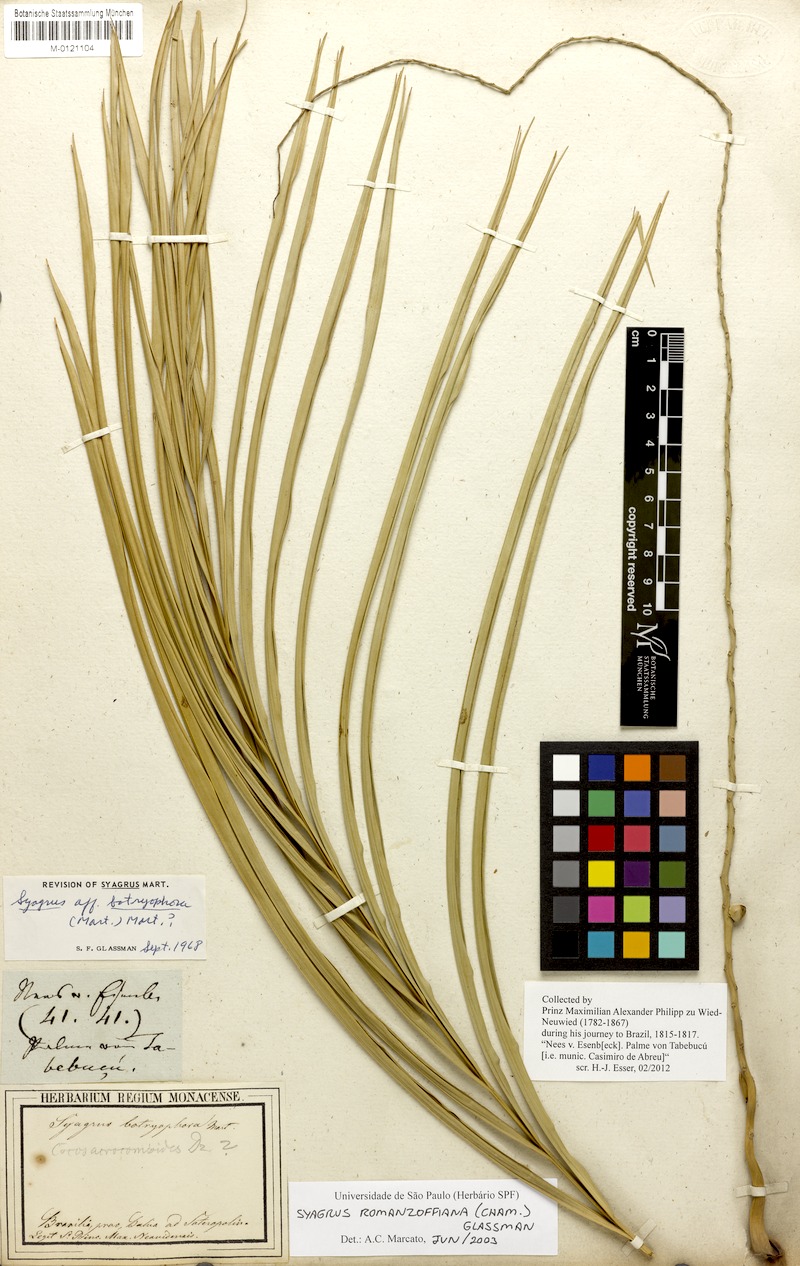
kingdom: Plantae
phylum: Tracheophyta
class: Liliopsida
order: Arecales
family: Arecaceae
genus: Syagrus
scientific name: Syagrus romanzoffiana
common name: Queen palm
